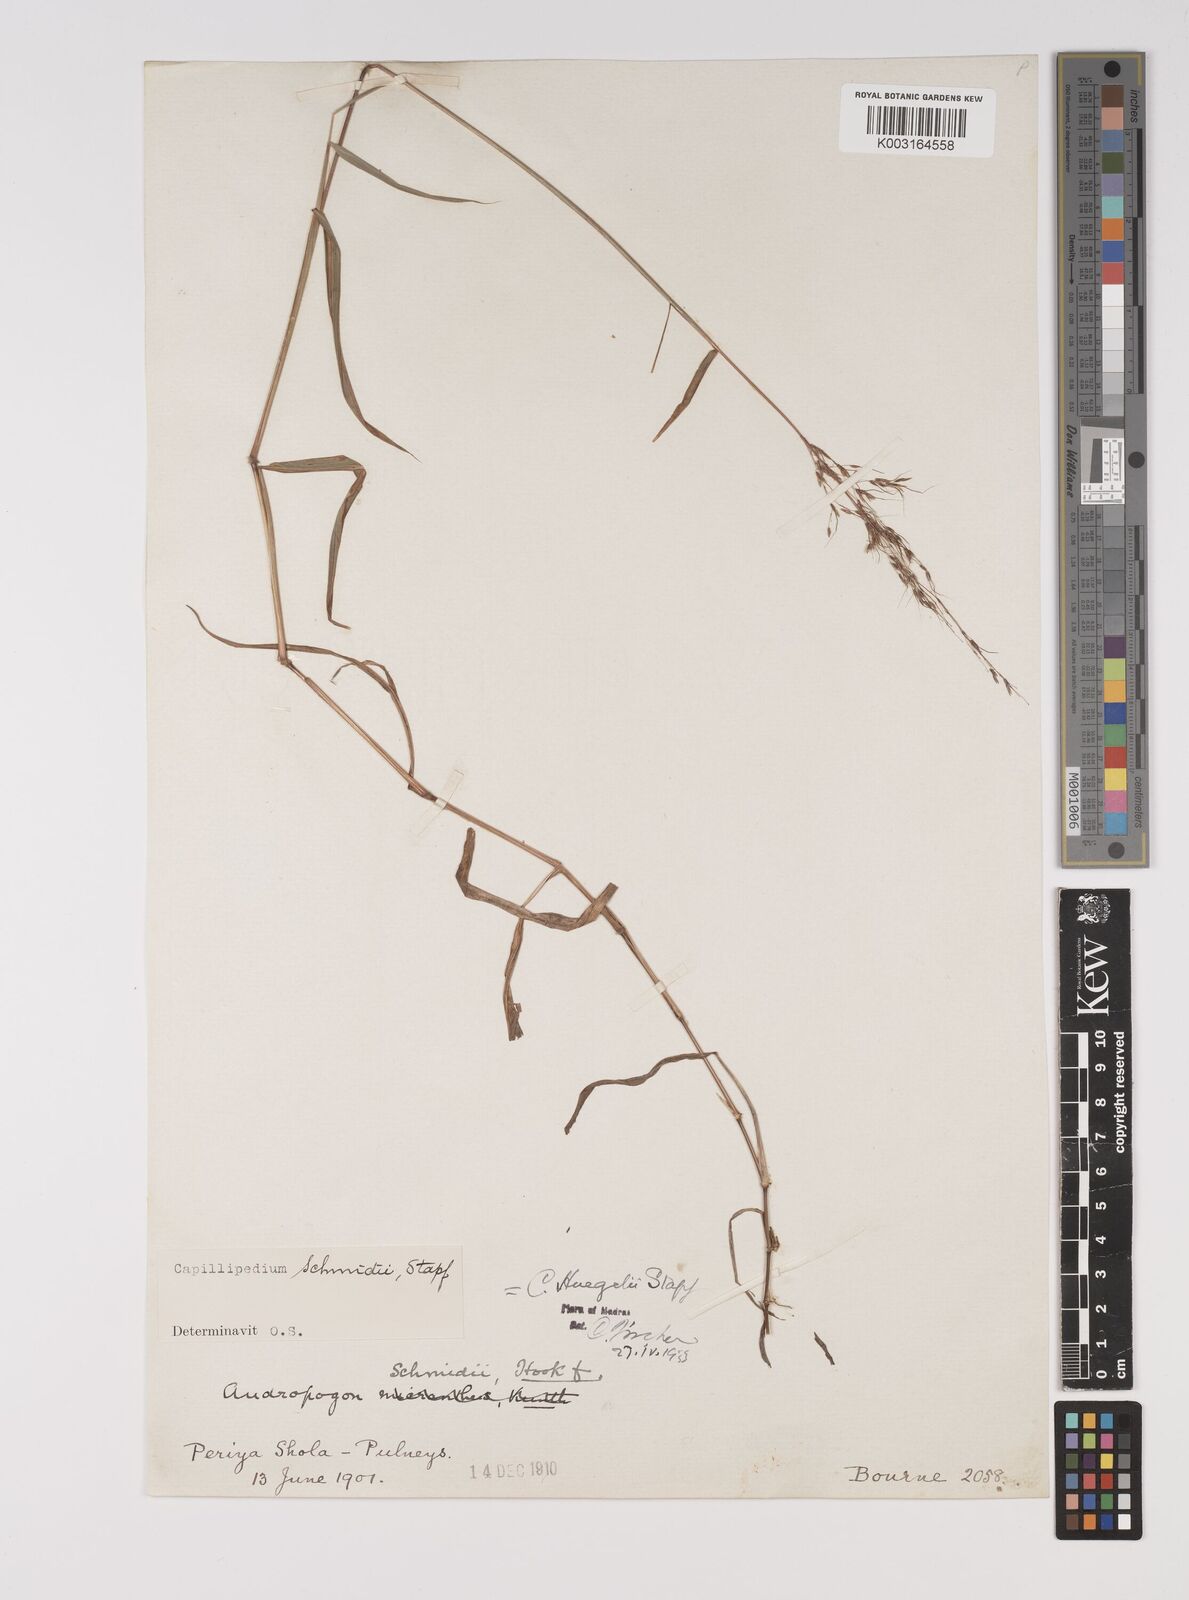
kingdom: Plantae
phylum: Tracheophyta
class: Liliopsida
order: Poales
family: Poaceae
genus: Capillipedium
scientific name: Capillipedium huegelii
